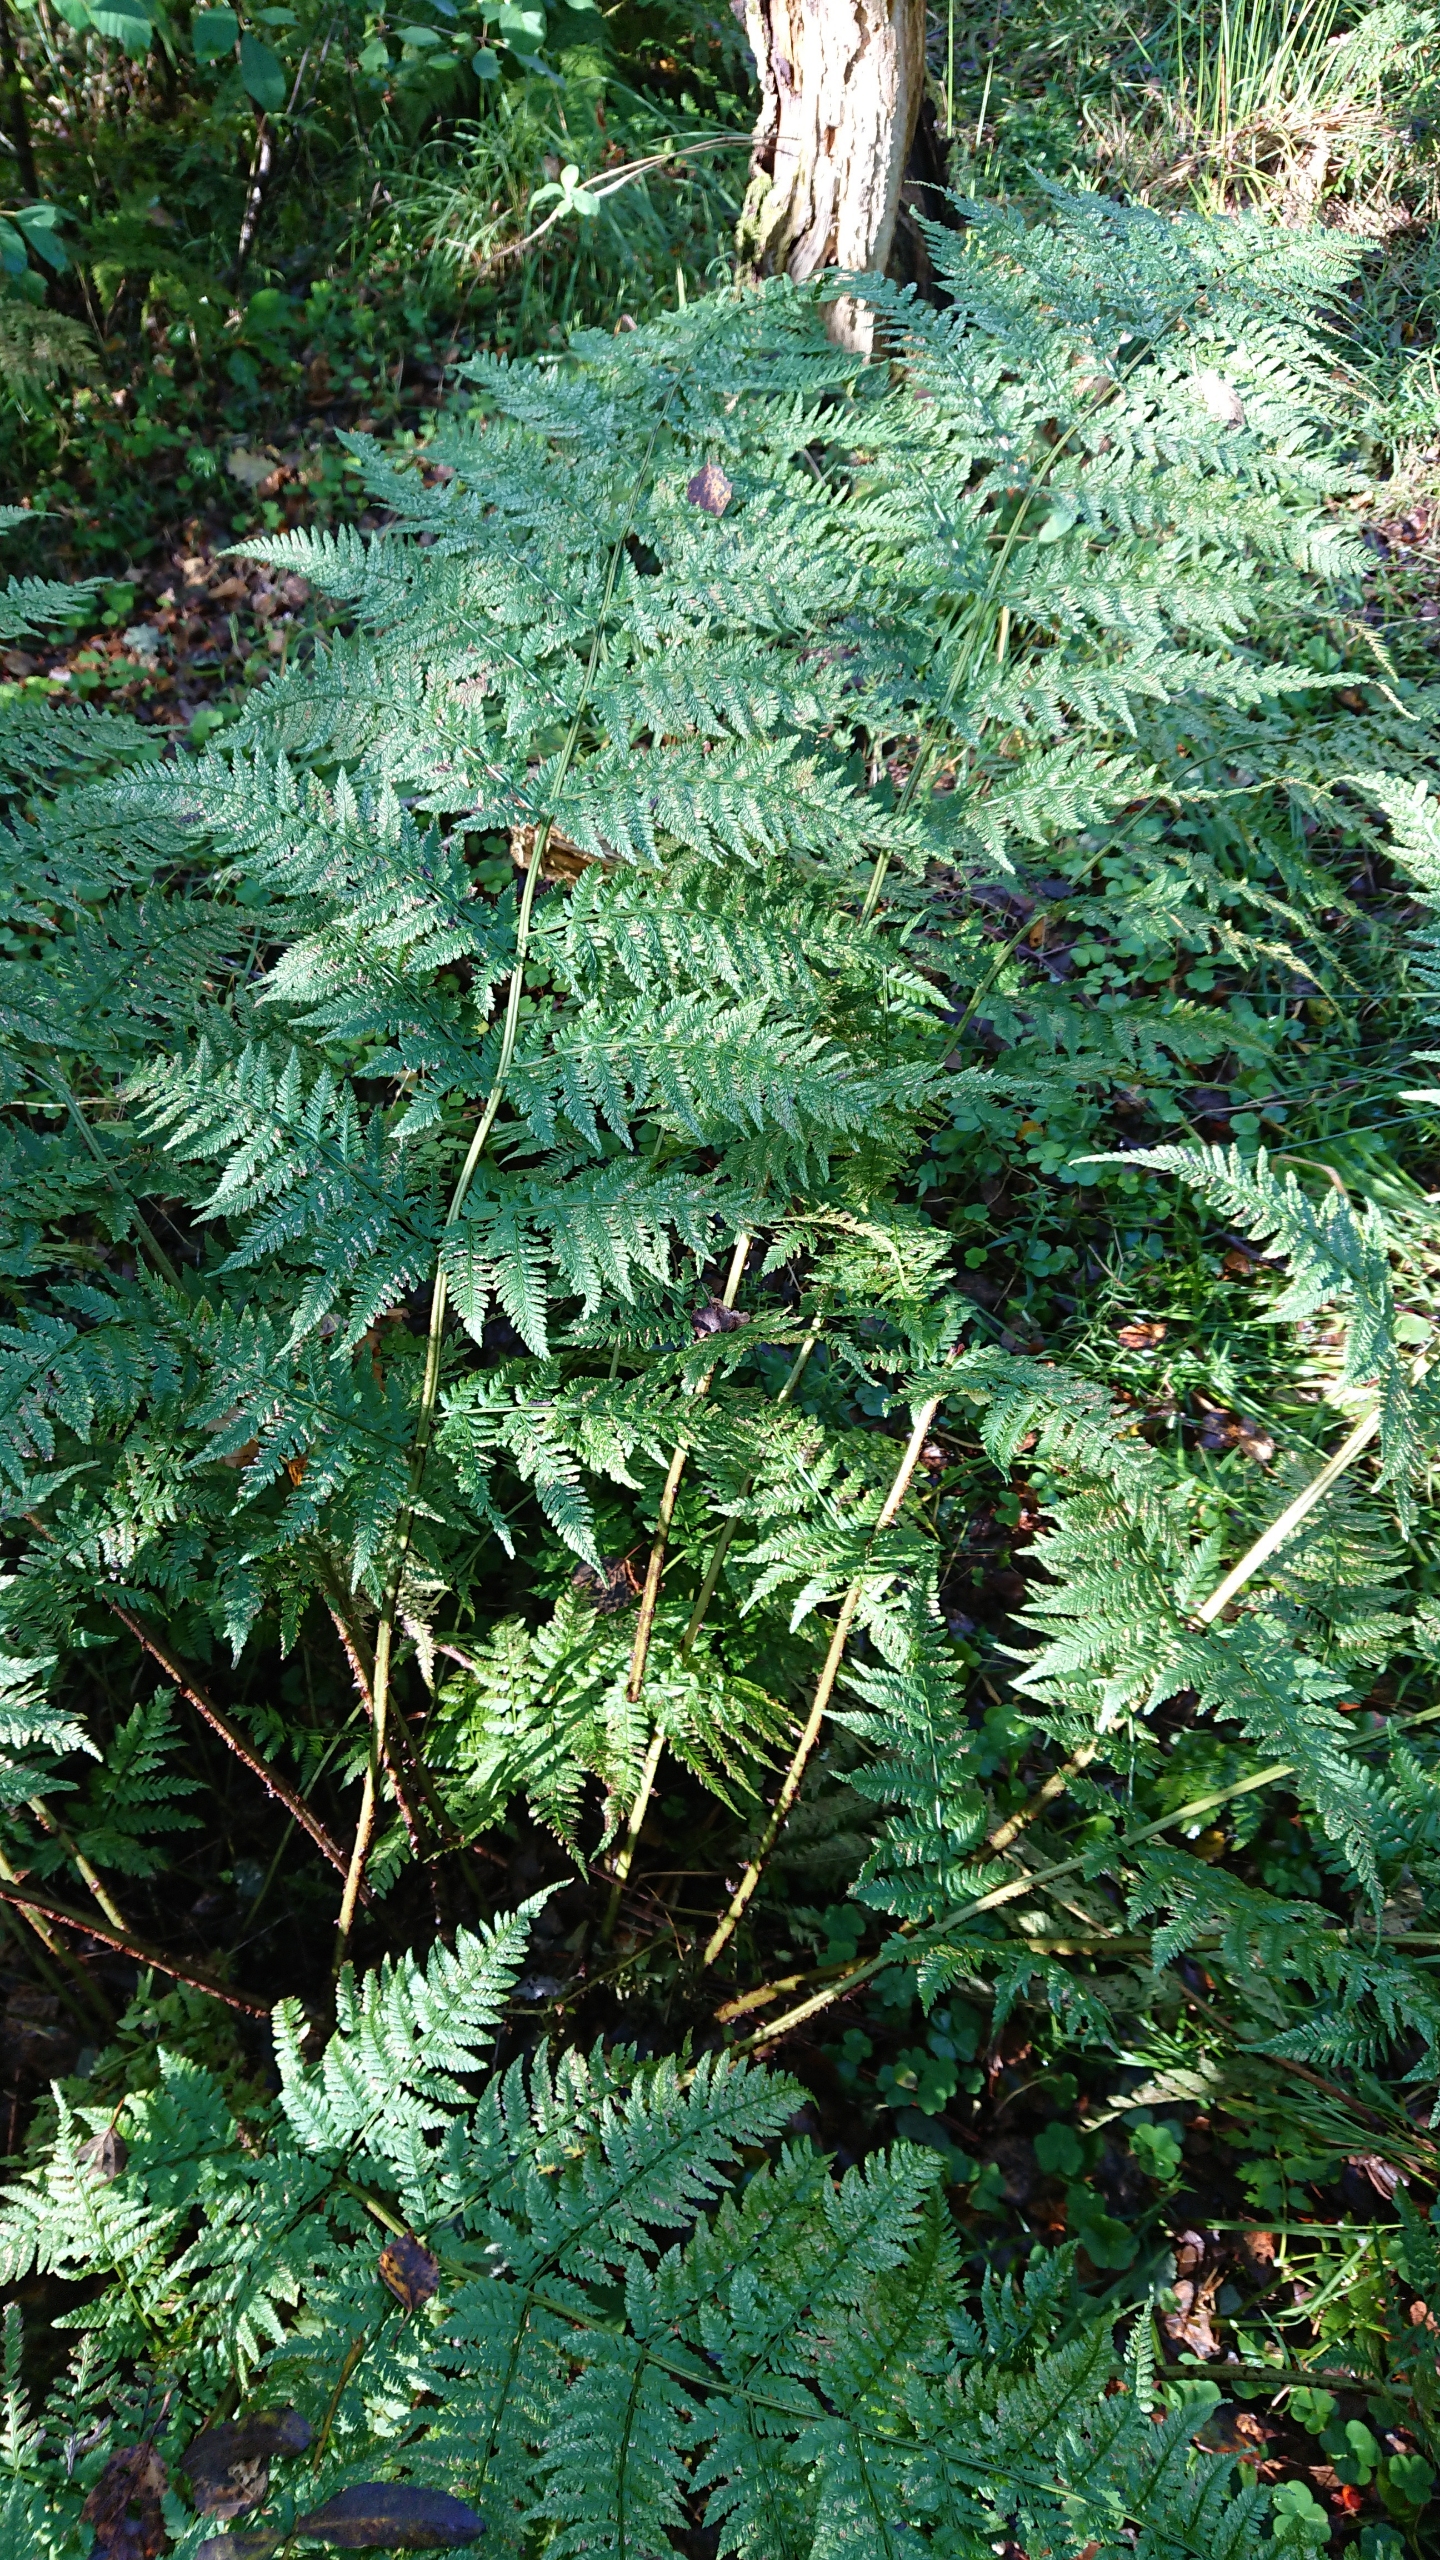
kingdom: Plantae
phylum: Tracheophyta
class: Polypodiopsida
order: Polypodiales
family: Dryopteridaceae
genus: Dryopteris
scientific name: Dryopteris dilatata
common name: Bredbladet mangeløv
